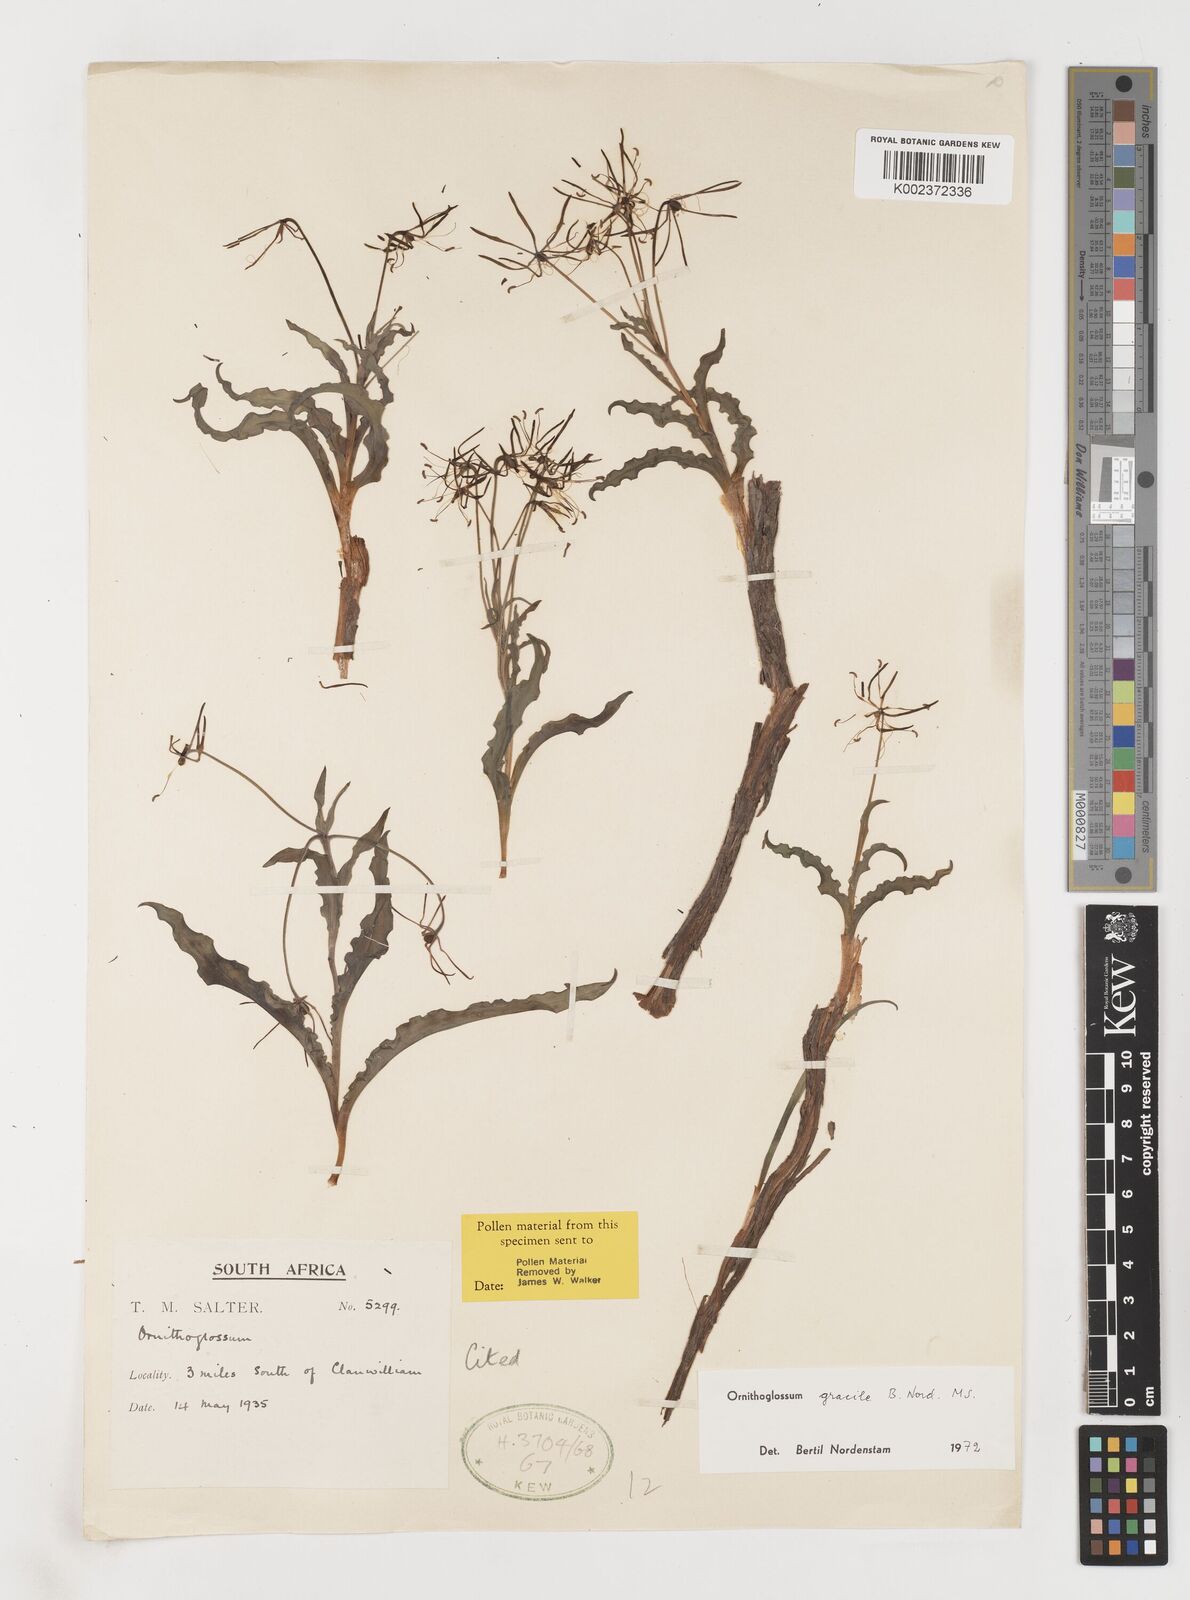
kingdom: Plantae
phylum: Tracheophyta
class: Liliopsida
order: Liliales
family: Colchicaceae
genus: Ornithoglossum
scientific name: Ornithoglossum gracile
